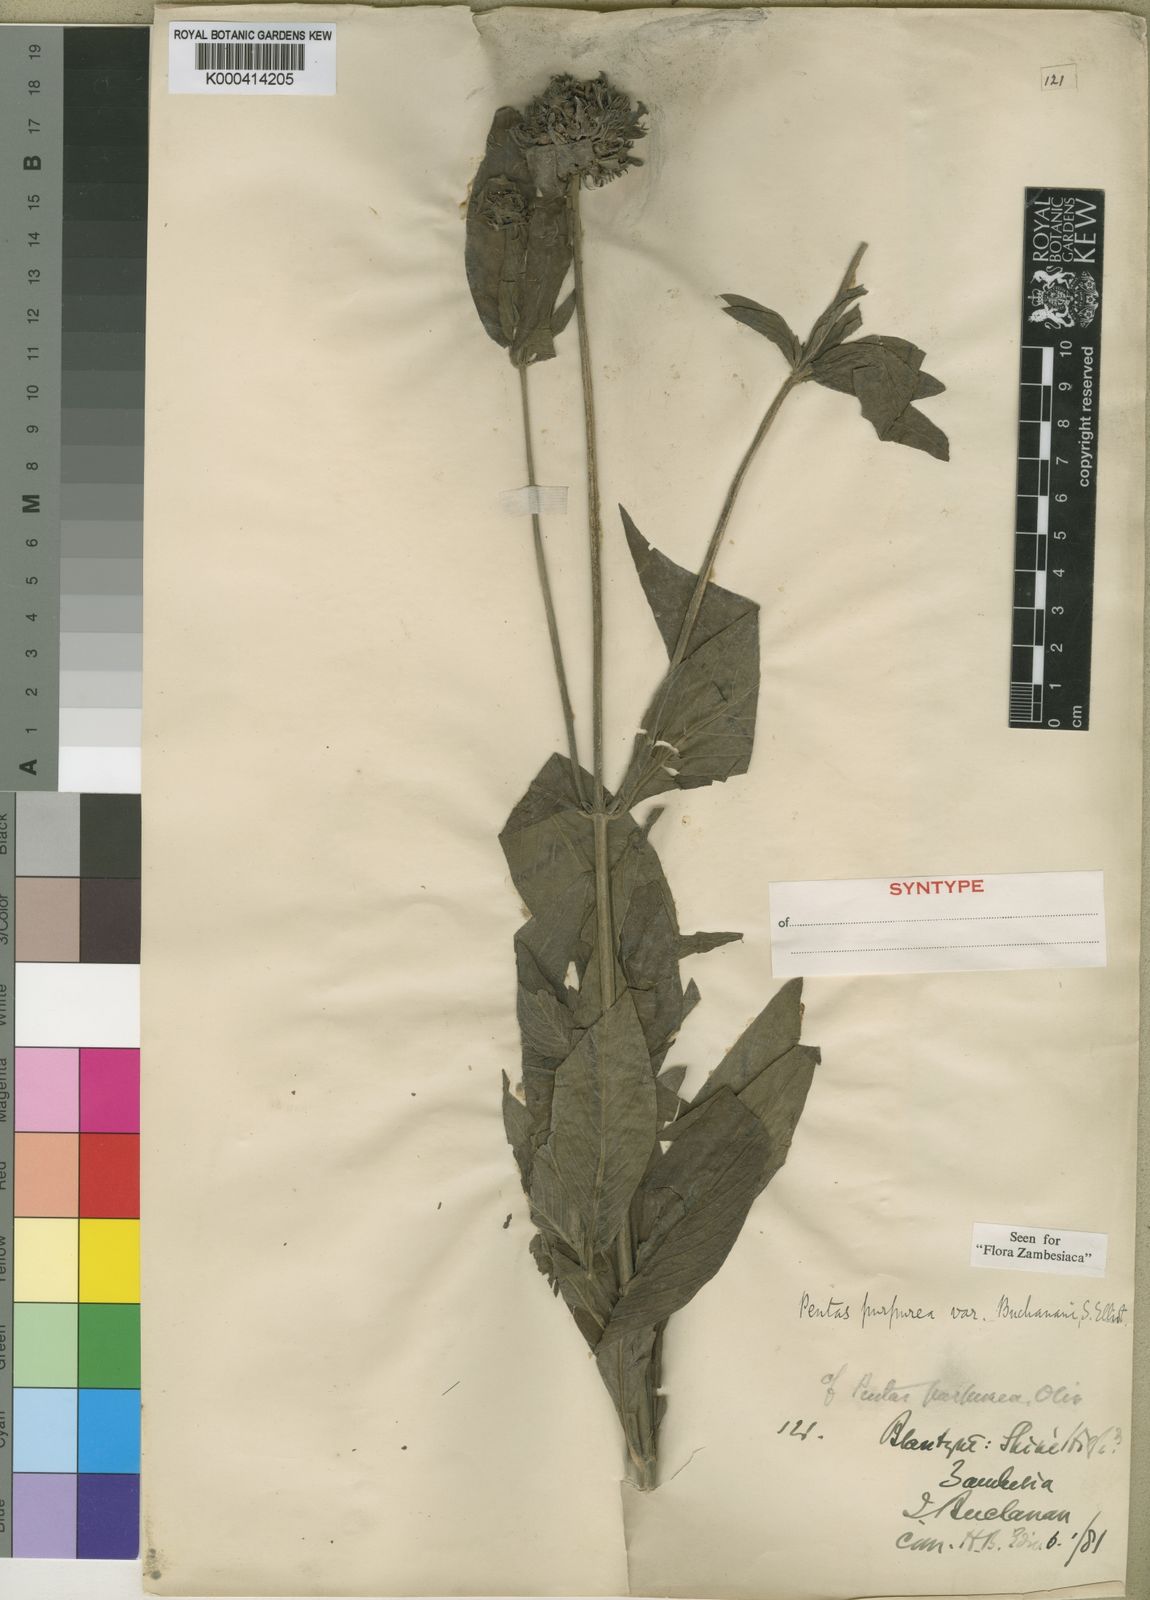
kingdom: Plantae
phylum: Tracheophyta
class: Magnoliopsida
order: Gentianales
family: Rubiaceae
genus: Pentas
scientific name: Pentas purpurea
